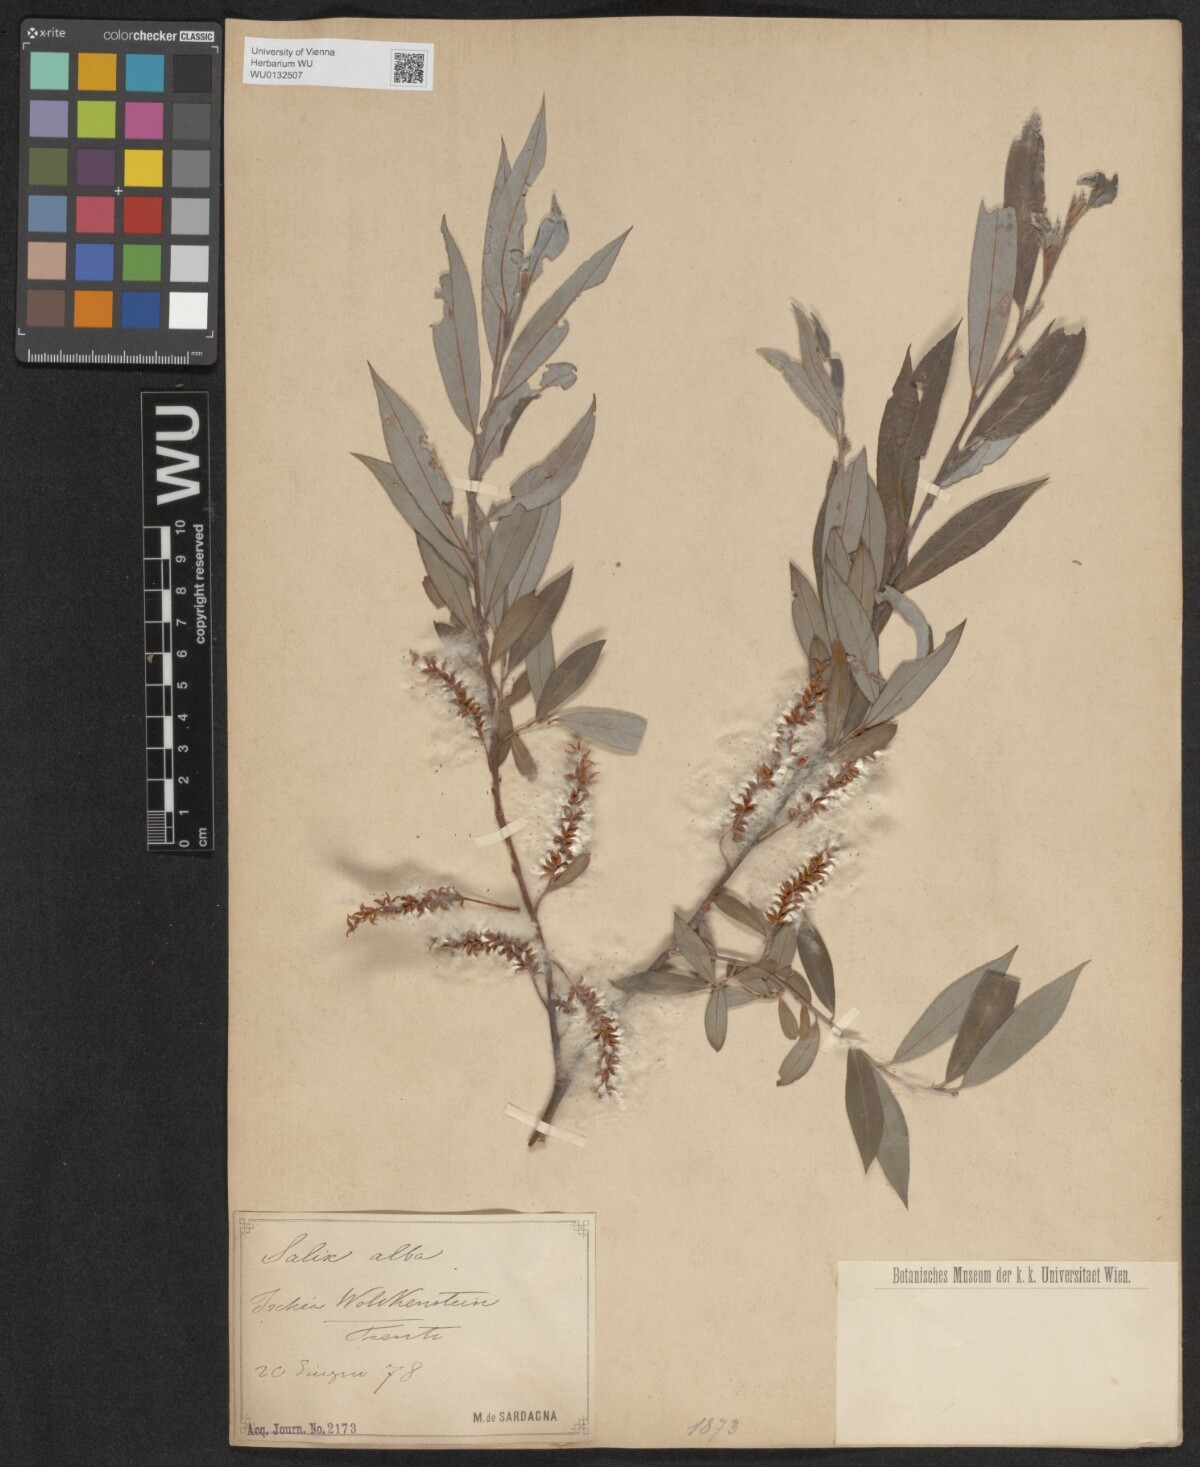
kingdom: Plantae
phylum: Tracheophyta
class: Magnoliopsida
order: Malpighiales
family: Salicaceae
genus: Salix
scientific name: Salix alba
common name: White willow
